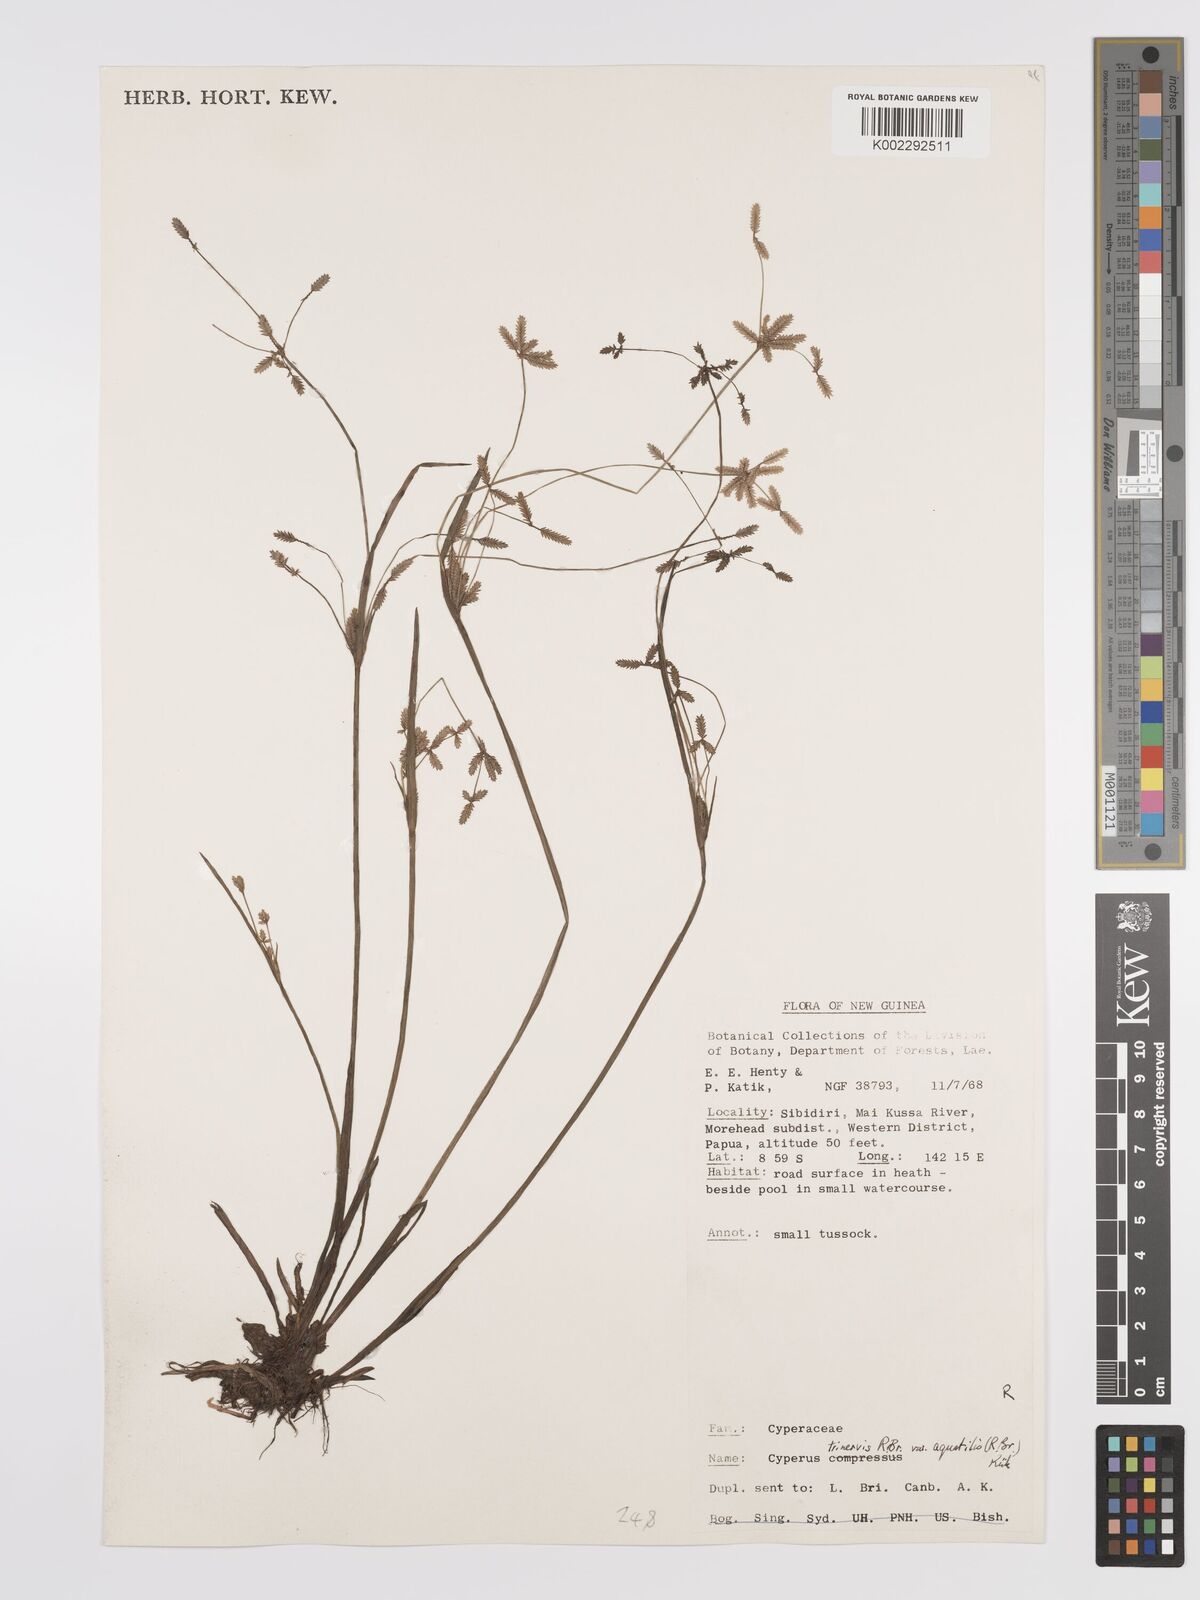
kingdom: Plantae
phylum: Tracheophyta
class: Liliopsida
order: Poales
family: Cyperaceae
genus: Cyperus
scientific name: Cyperus aquatilis
